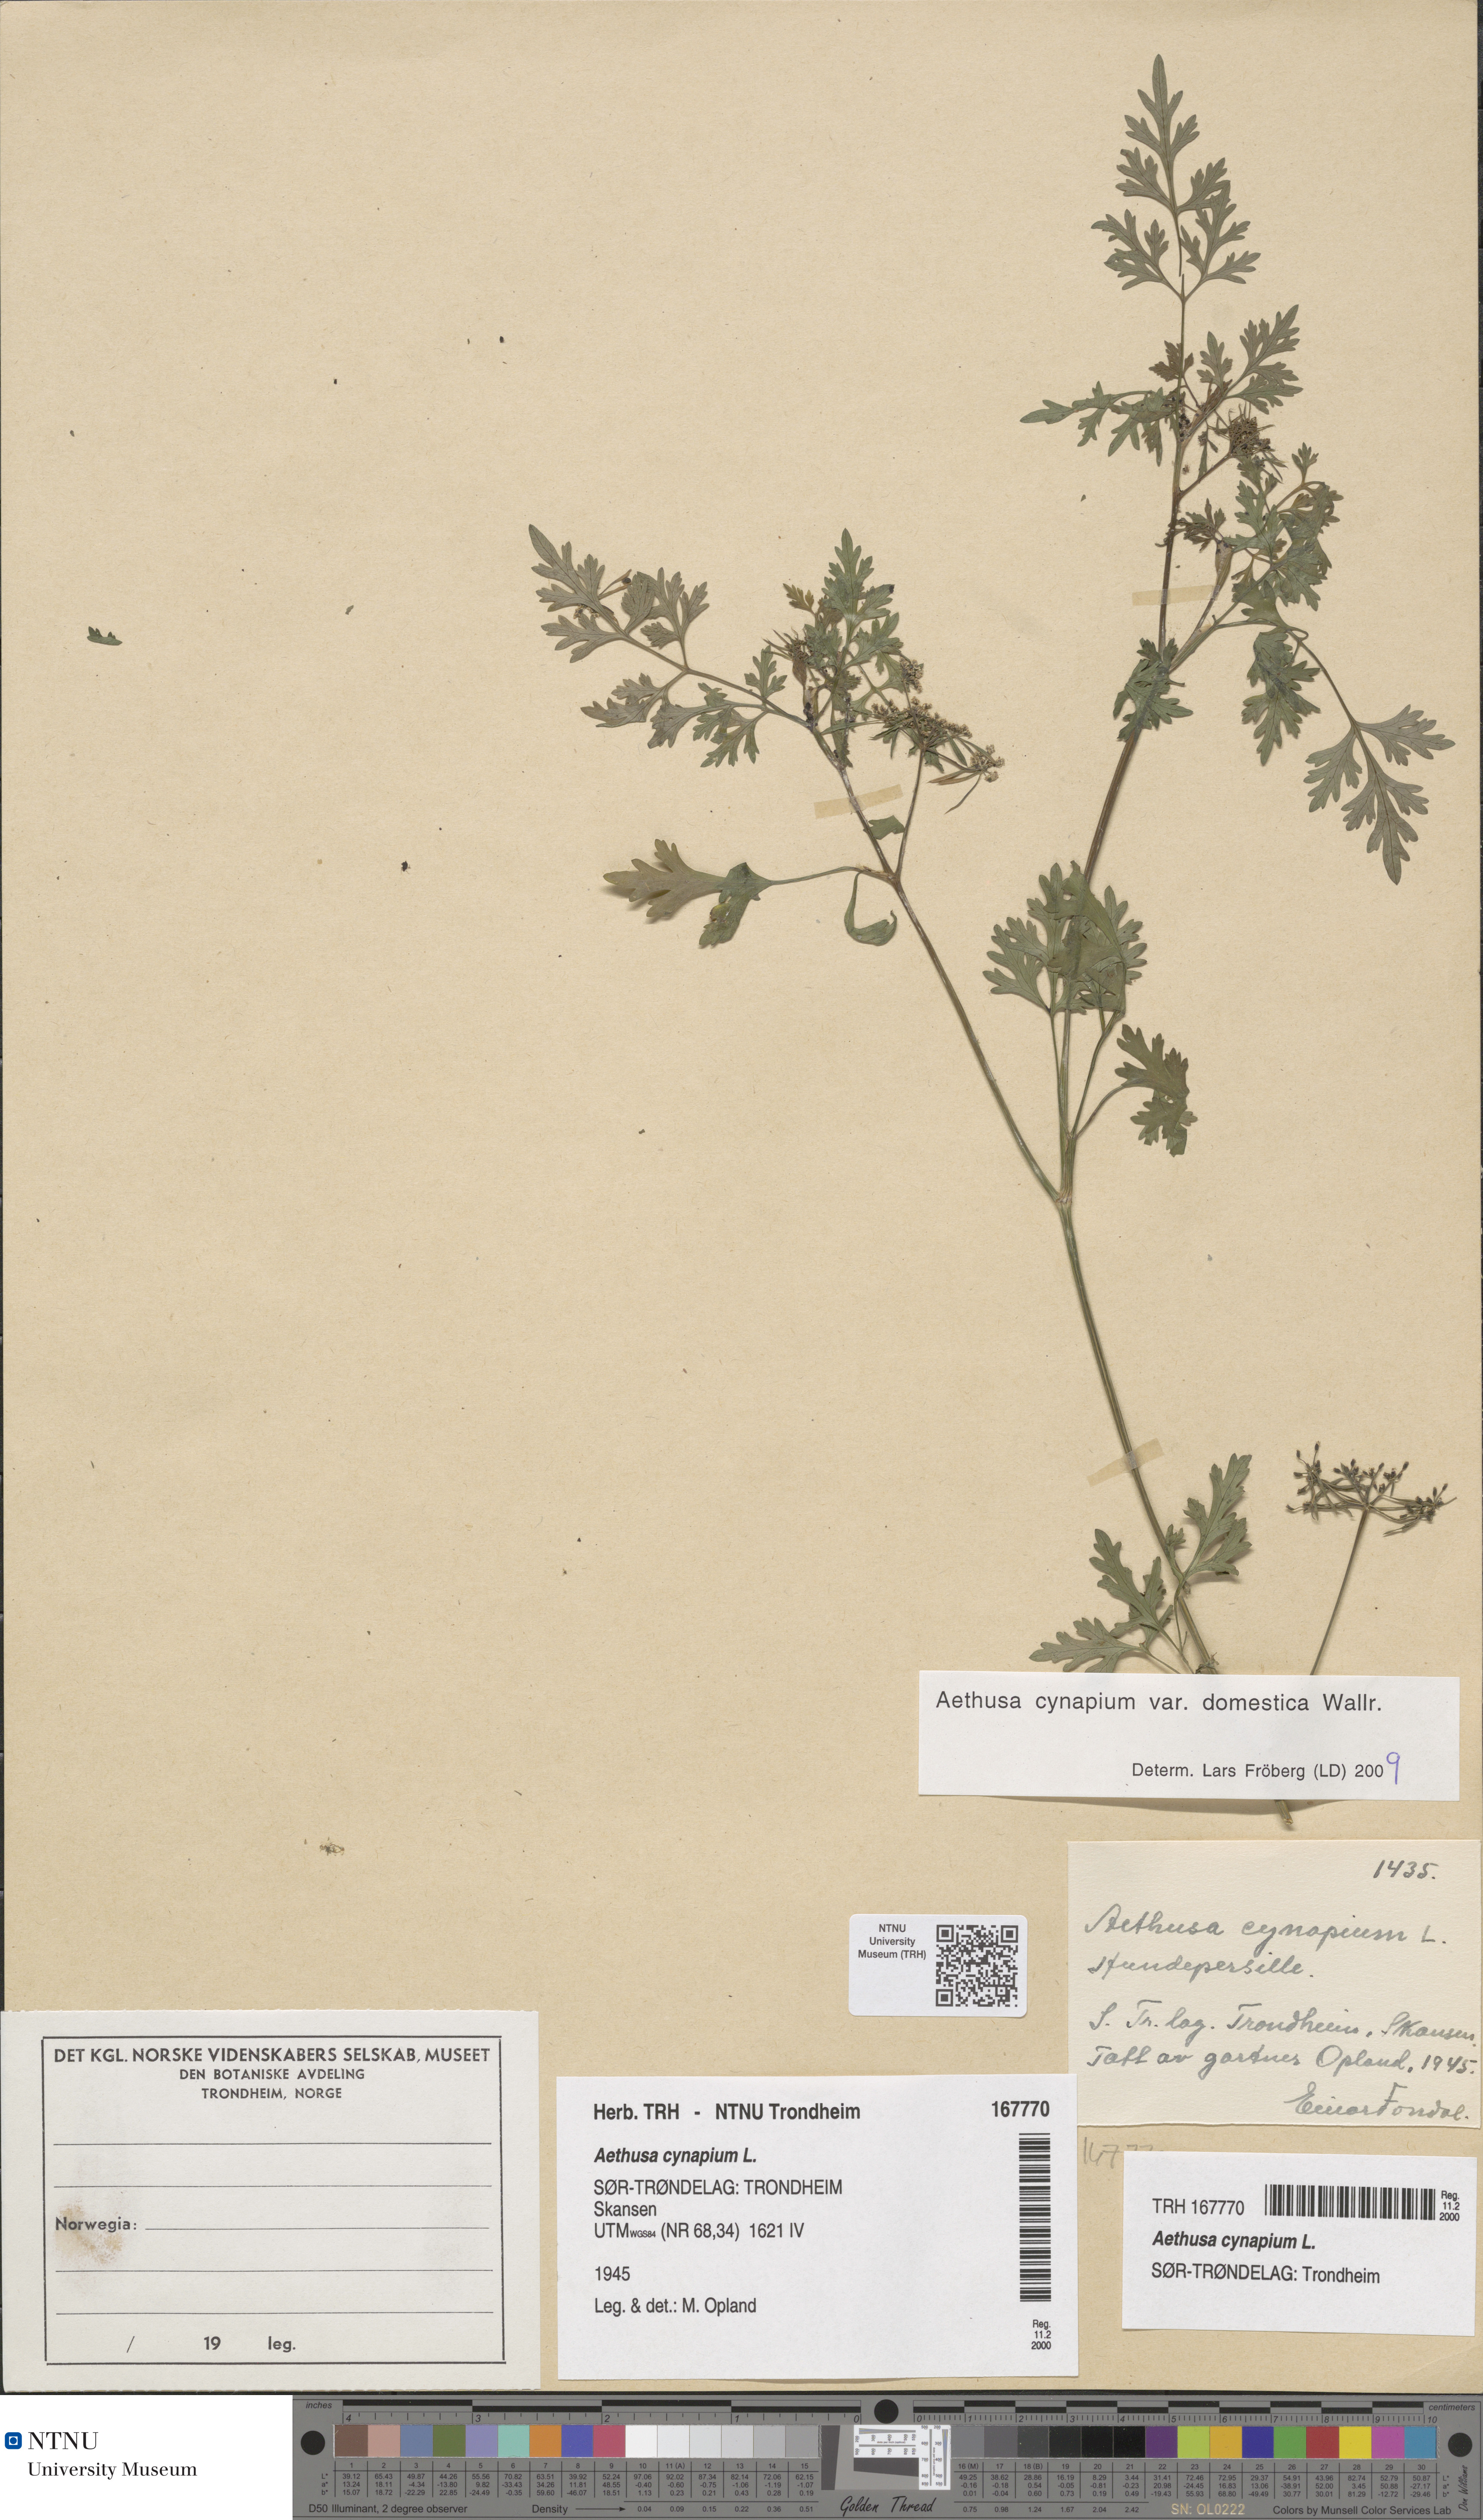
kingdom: Plantae
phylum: Tracheophyta
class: Magnoliopsida
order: Apiales
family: Apiaceae
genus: Aethusa
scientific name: Aethusa cynapium
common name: Fool's parsley
